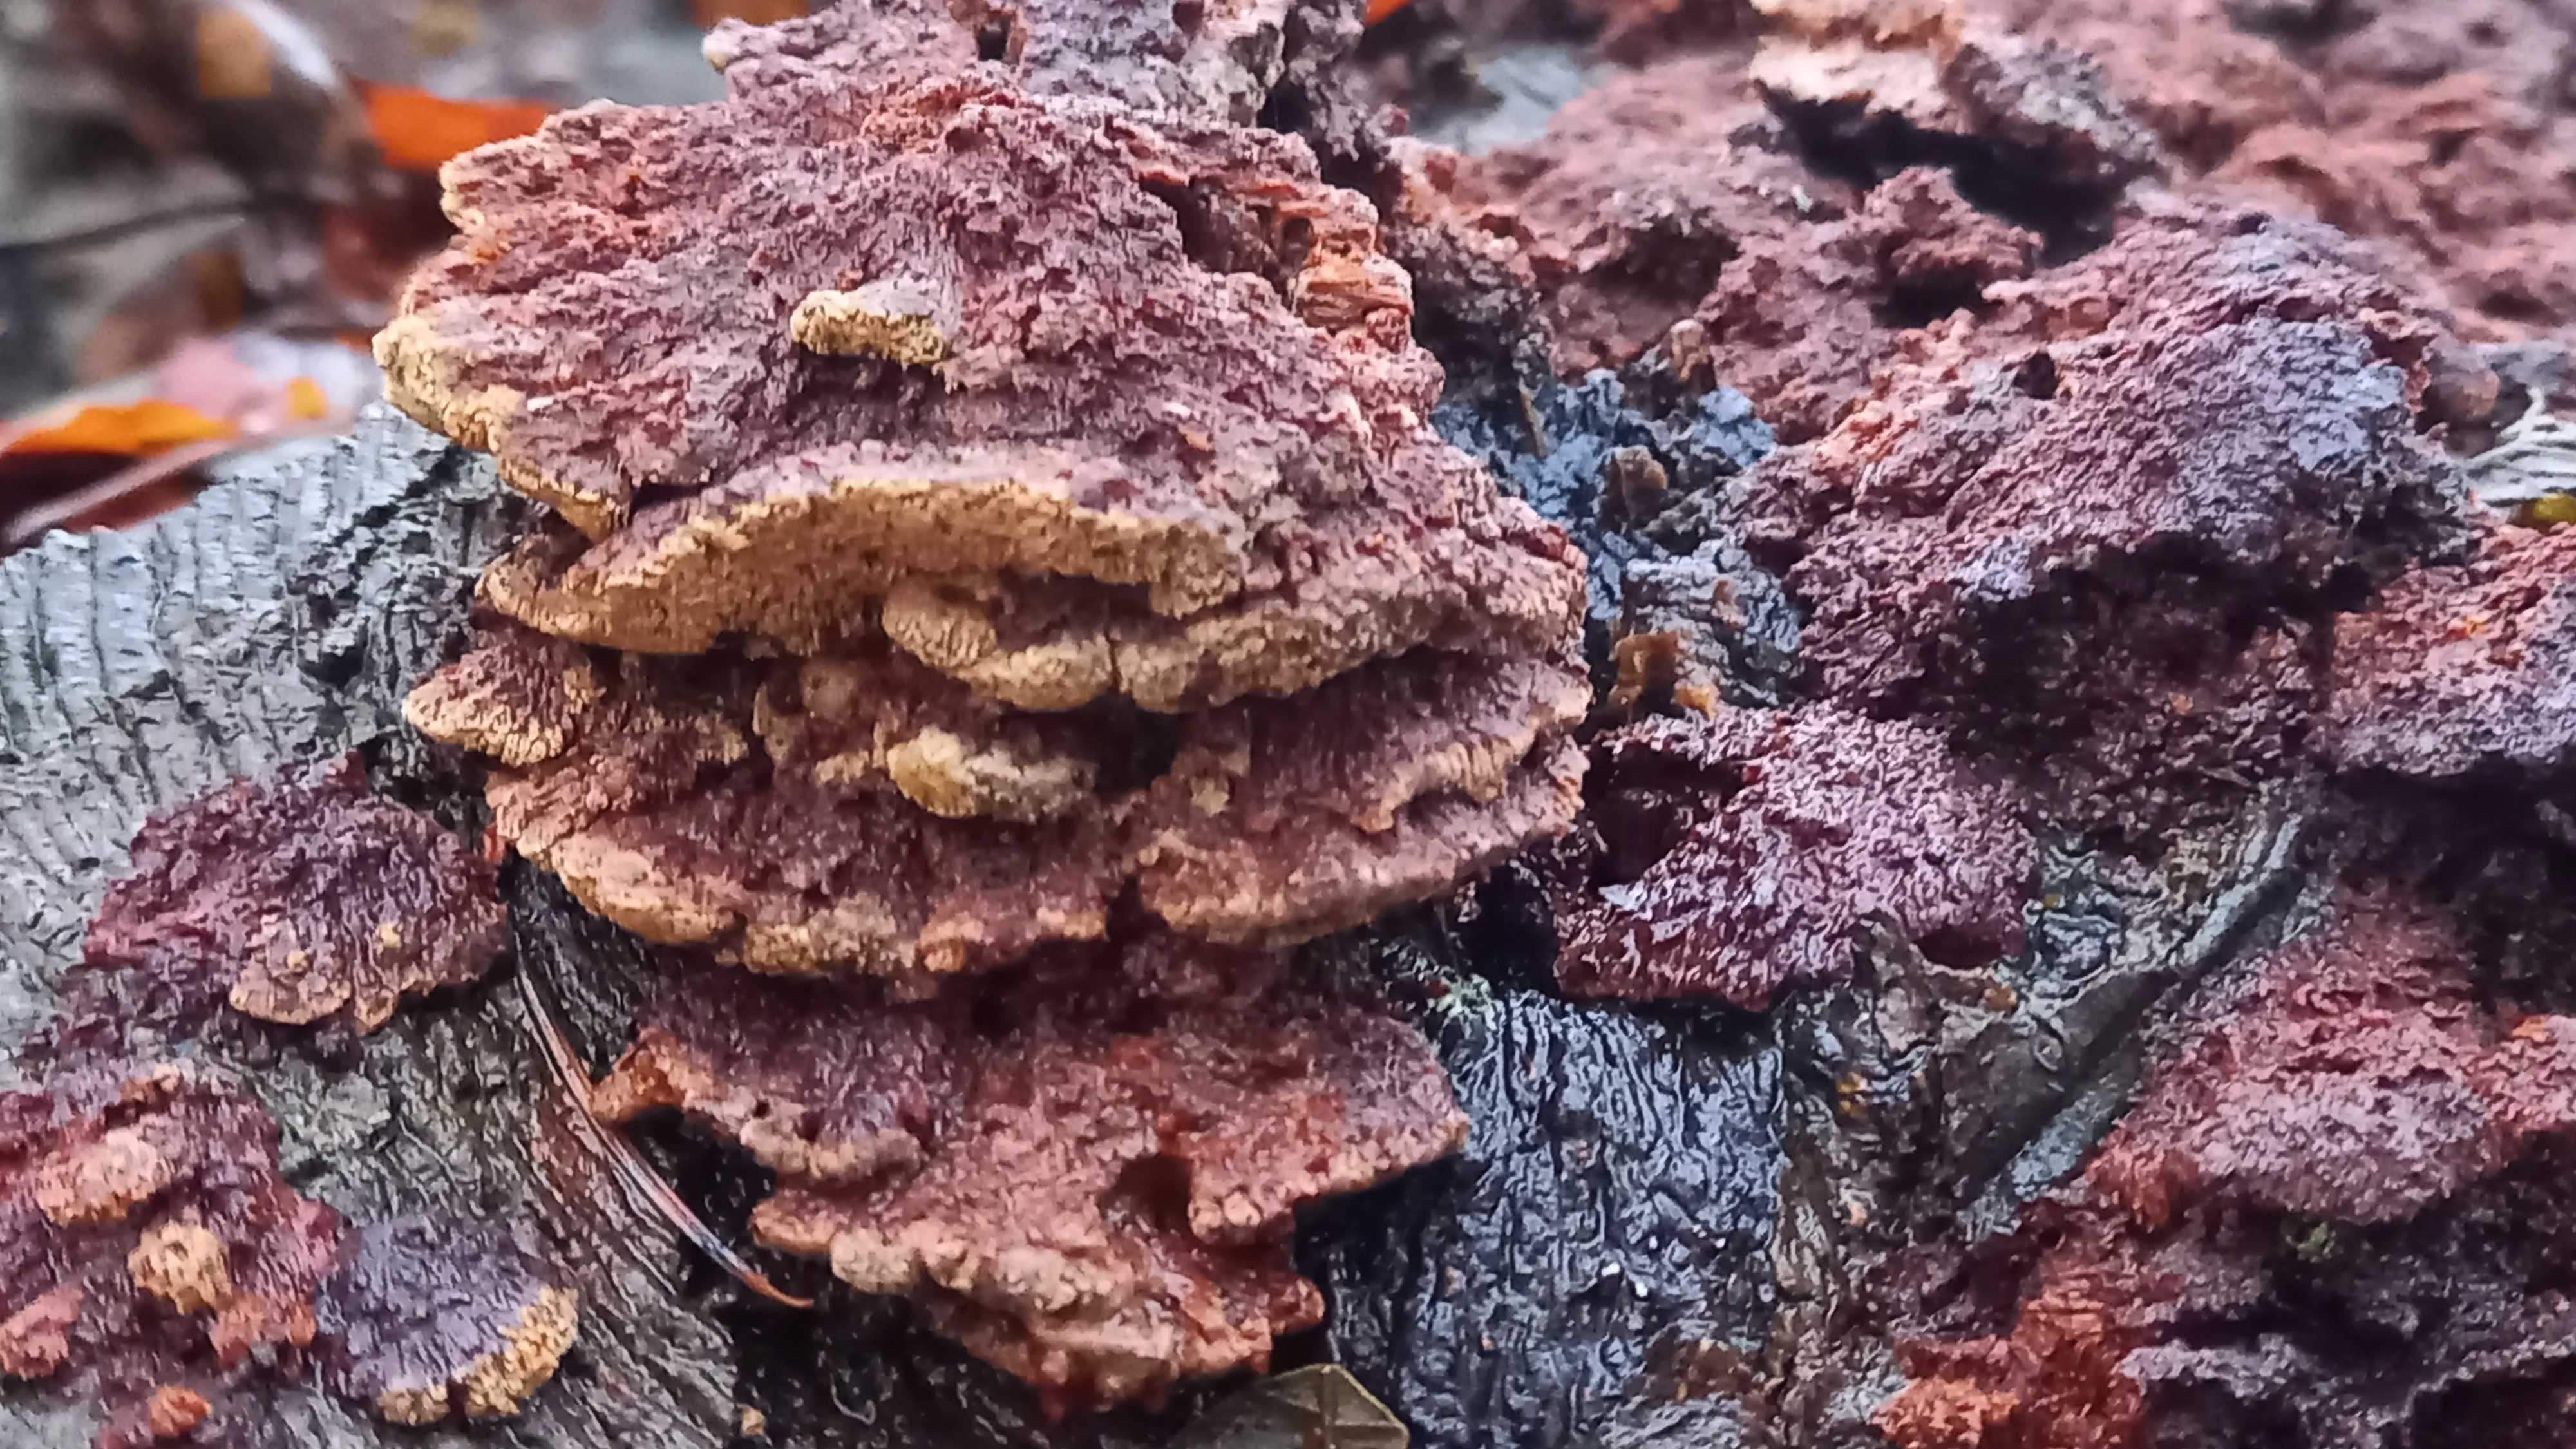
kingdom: Fungi
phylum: Basidiomycota
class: Agaricomycetes
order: Hymenochaetales
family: Hymenochaetaceae
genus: Mensularia
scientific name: Mensularia nodulosa
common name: bøge-spejlporesvamp
